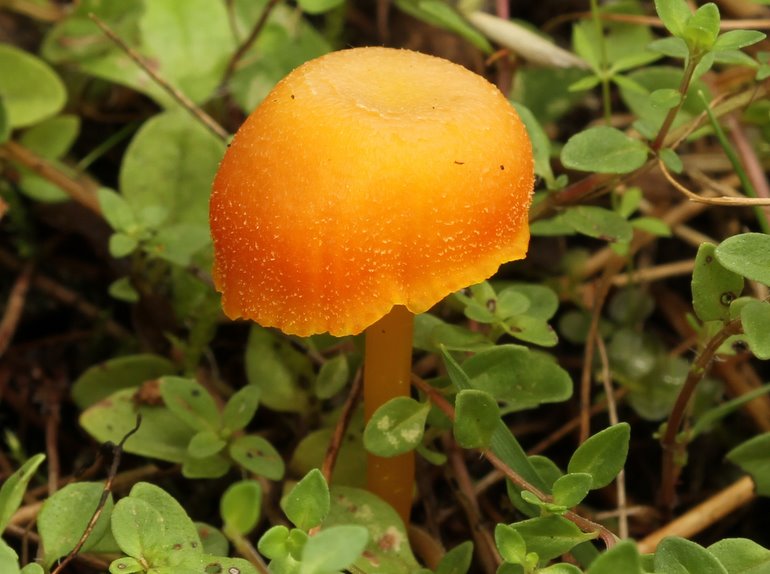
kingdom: Fungi
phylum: Basidiomycota
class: Agaricomycetes
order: Agaricales
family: Hygrophoraceae
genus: Hygrocybe
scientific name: Hygrocybe miniata
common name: mønje-vokshat
